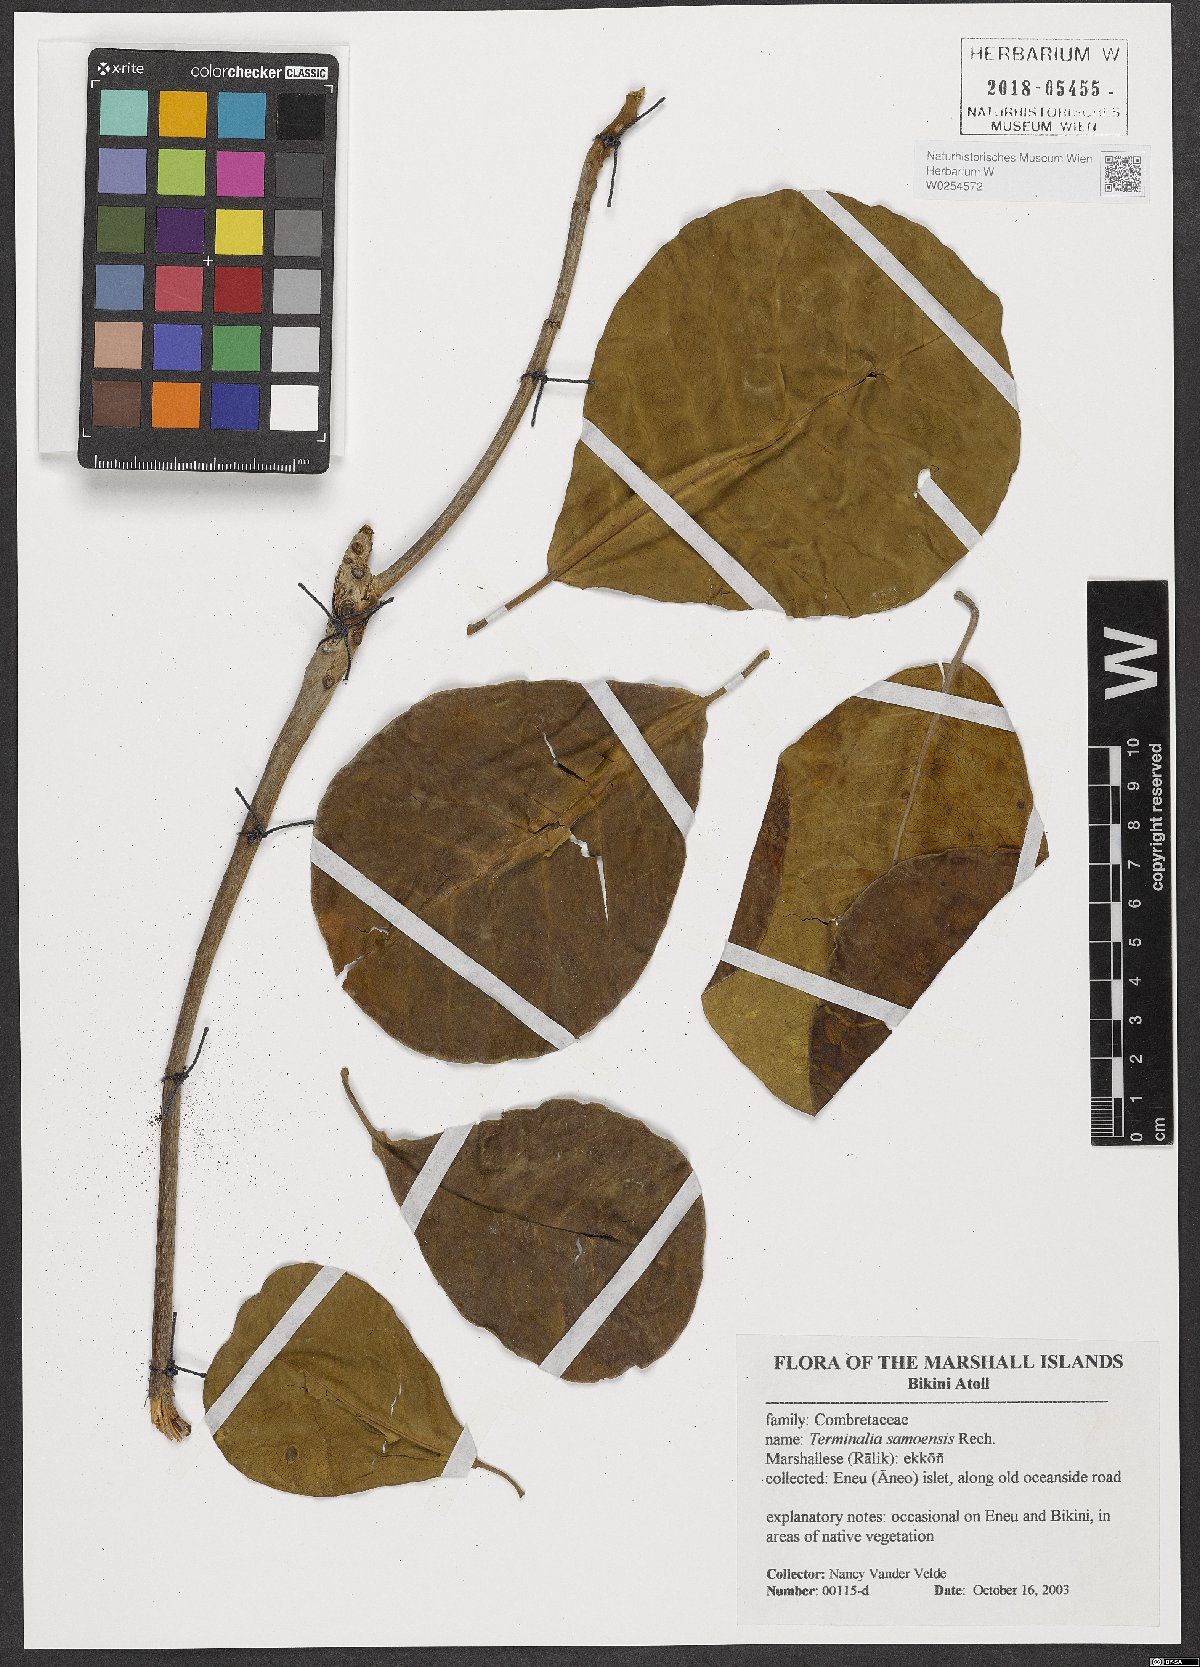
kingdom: Plantae
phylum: Tracheophyta
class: Magnoliopsida
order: Myrtales
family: Combretaceae
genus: Terminalia
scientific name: Terminalia samoensis
